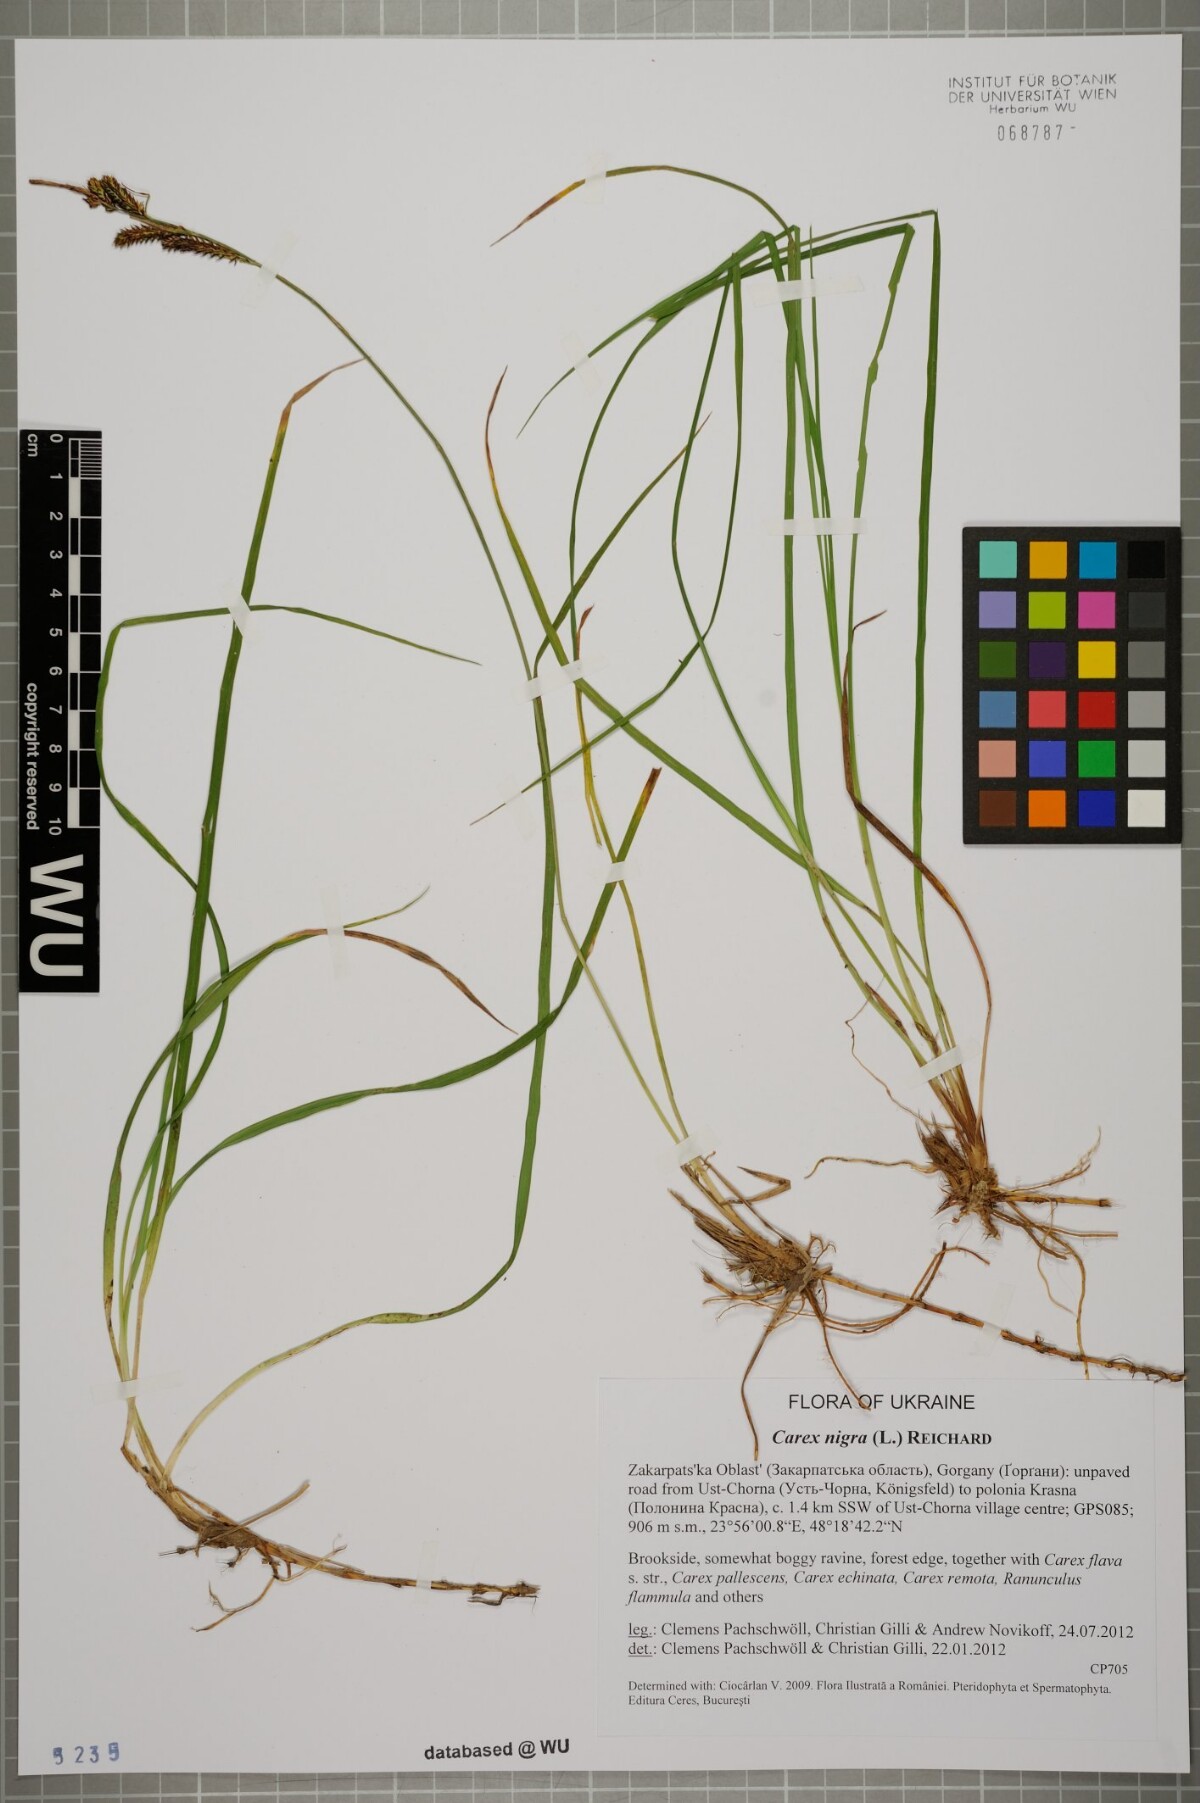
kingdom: Plantae
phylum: Tracheophyta
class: Liliopsida
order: Poales
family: Cyperaceae
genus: Carex
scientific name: Carex nigra
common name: Common sedge
